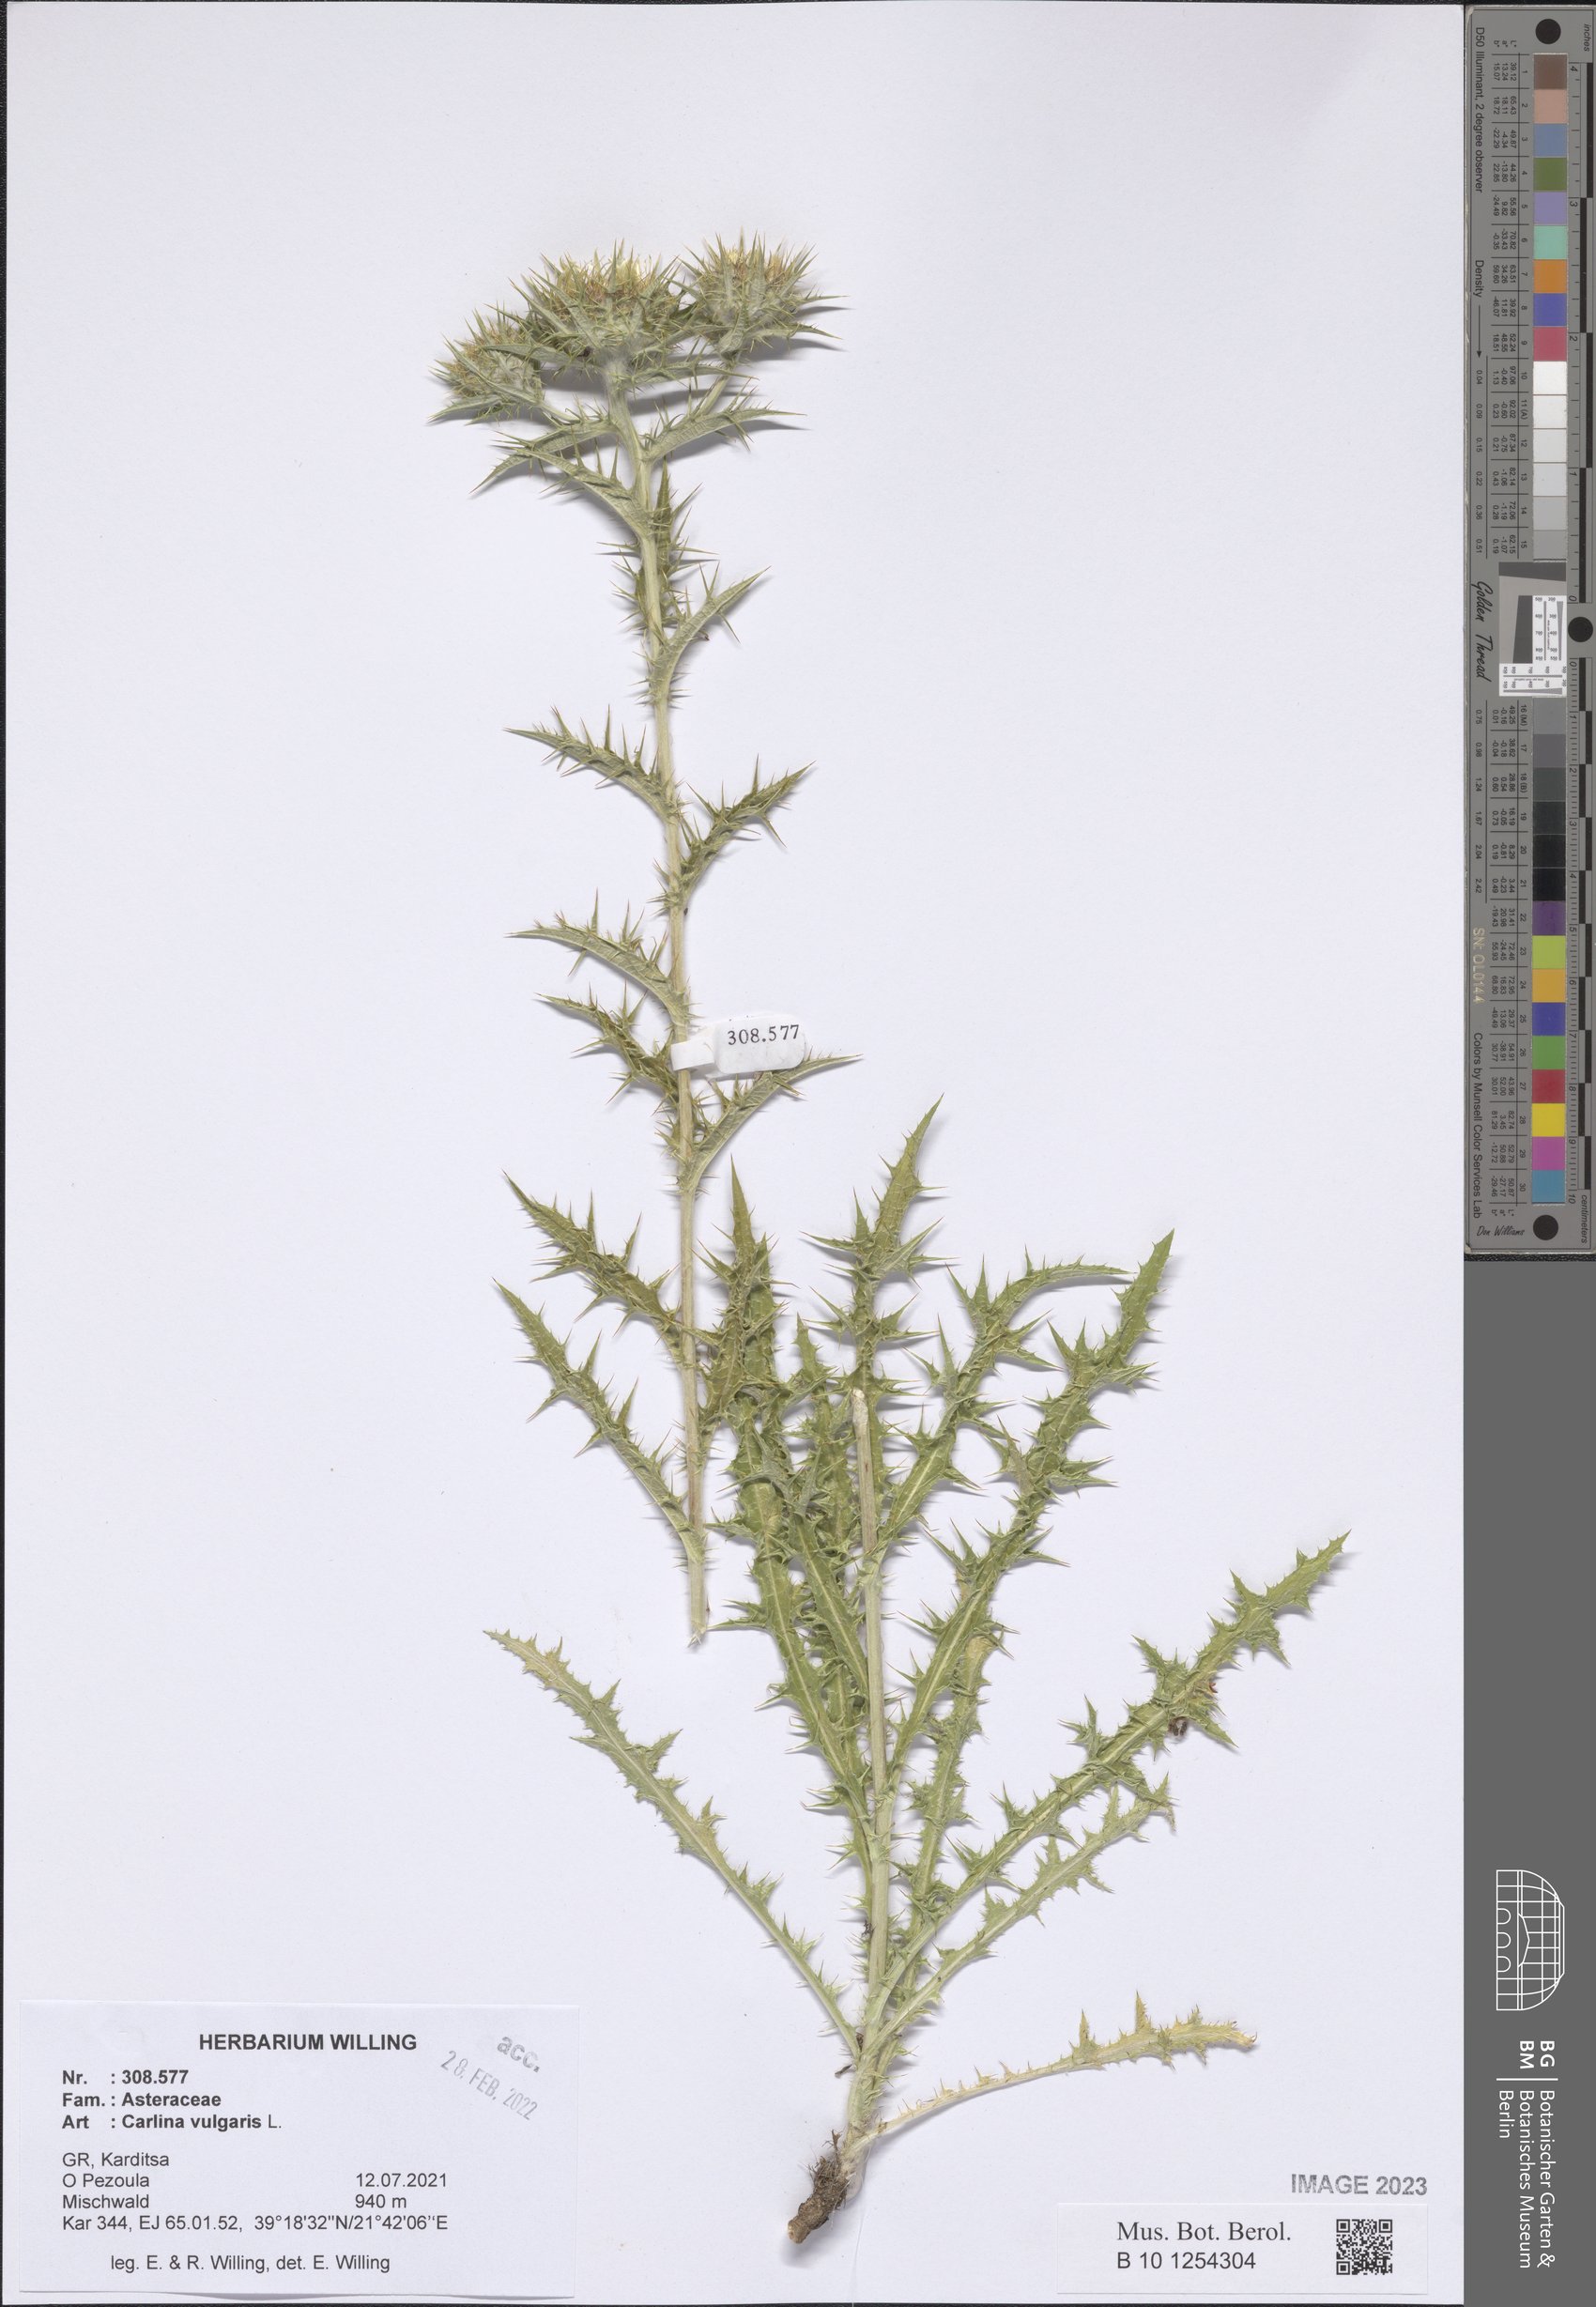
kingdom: Plantae
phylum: Tracheophyta
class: Magnoliopsida
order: Asterales
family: Asteraceae
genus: Carlina
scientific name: Carlina vulgaris
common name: Carline thistle
